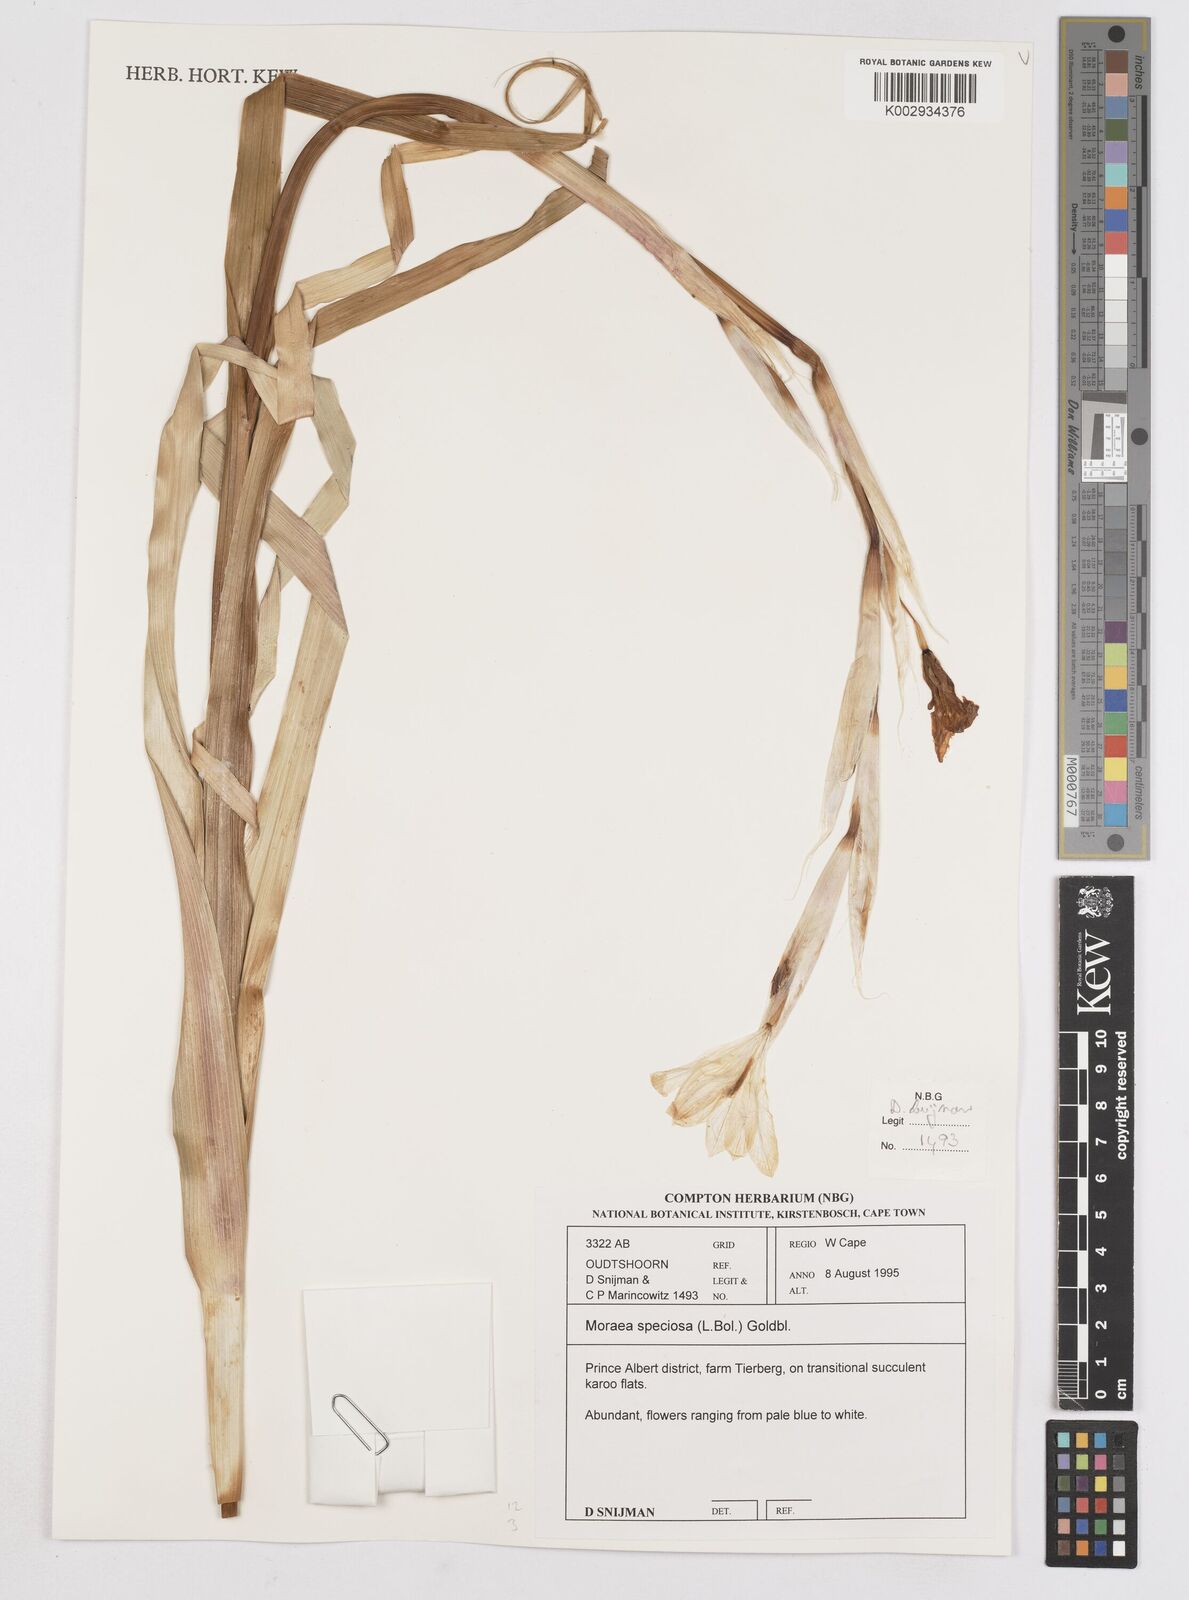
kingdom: Plantae
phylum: Tracheophyta
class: Liliopsida
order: Asparagales
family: Iridaceae
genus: Moraea
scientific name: Moraea speciosa
